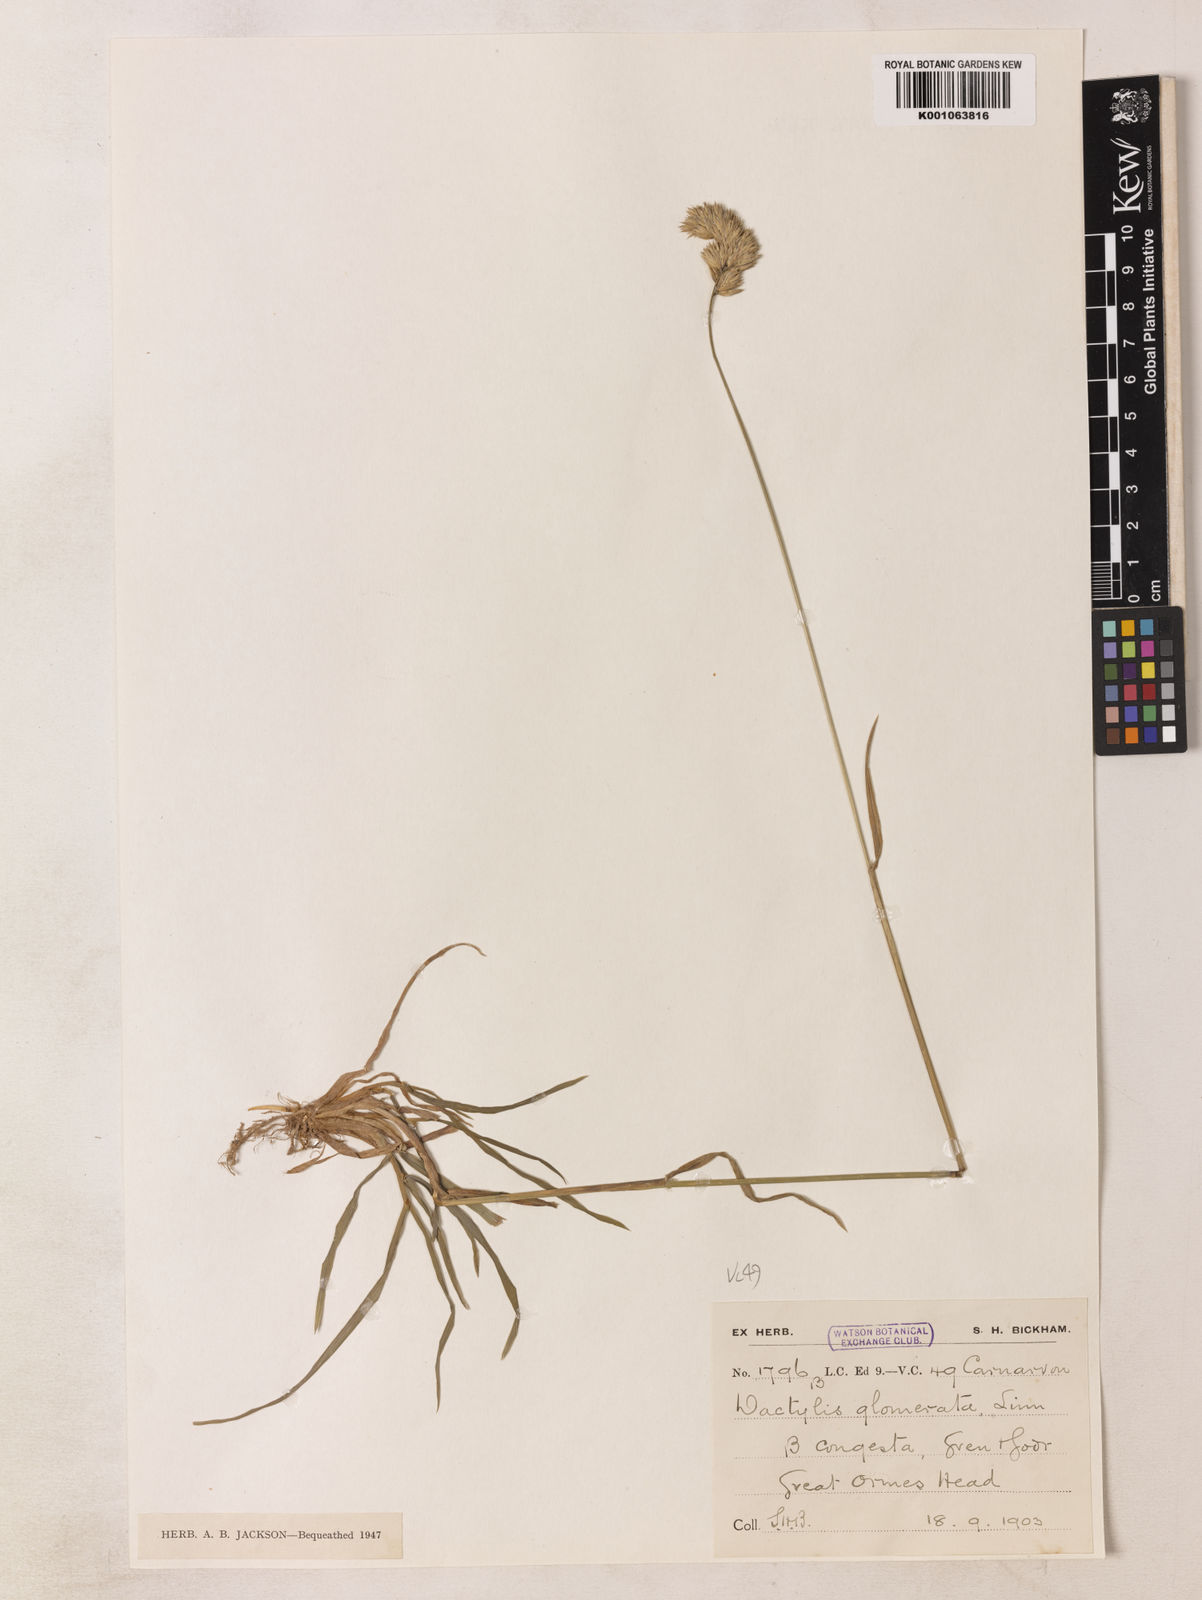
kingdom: Plantae
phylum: Tracheophyta
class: Liliopsida
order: Poales
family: Poaceae
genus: Dactylis
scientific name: Dactylis glomerata
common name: Orchardgrass
